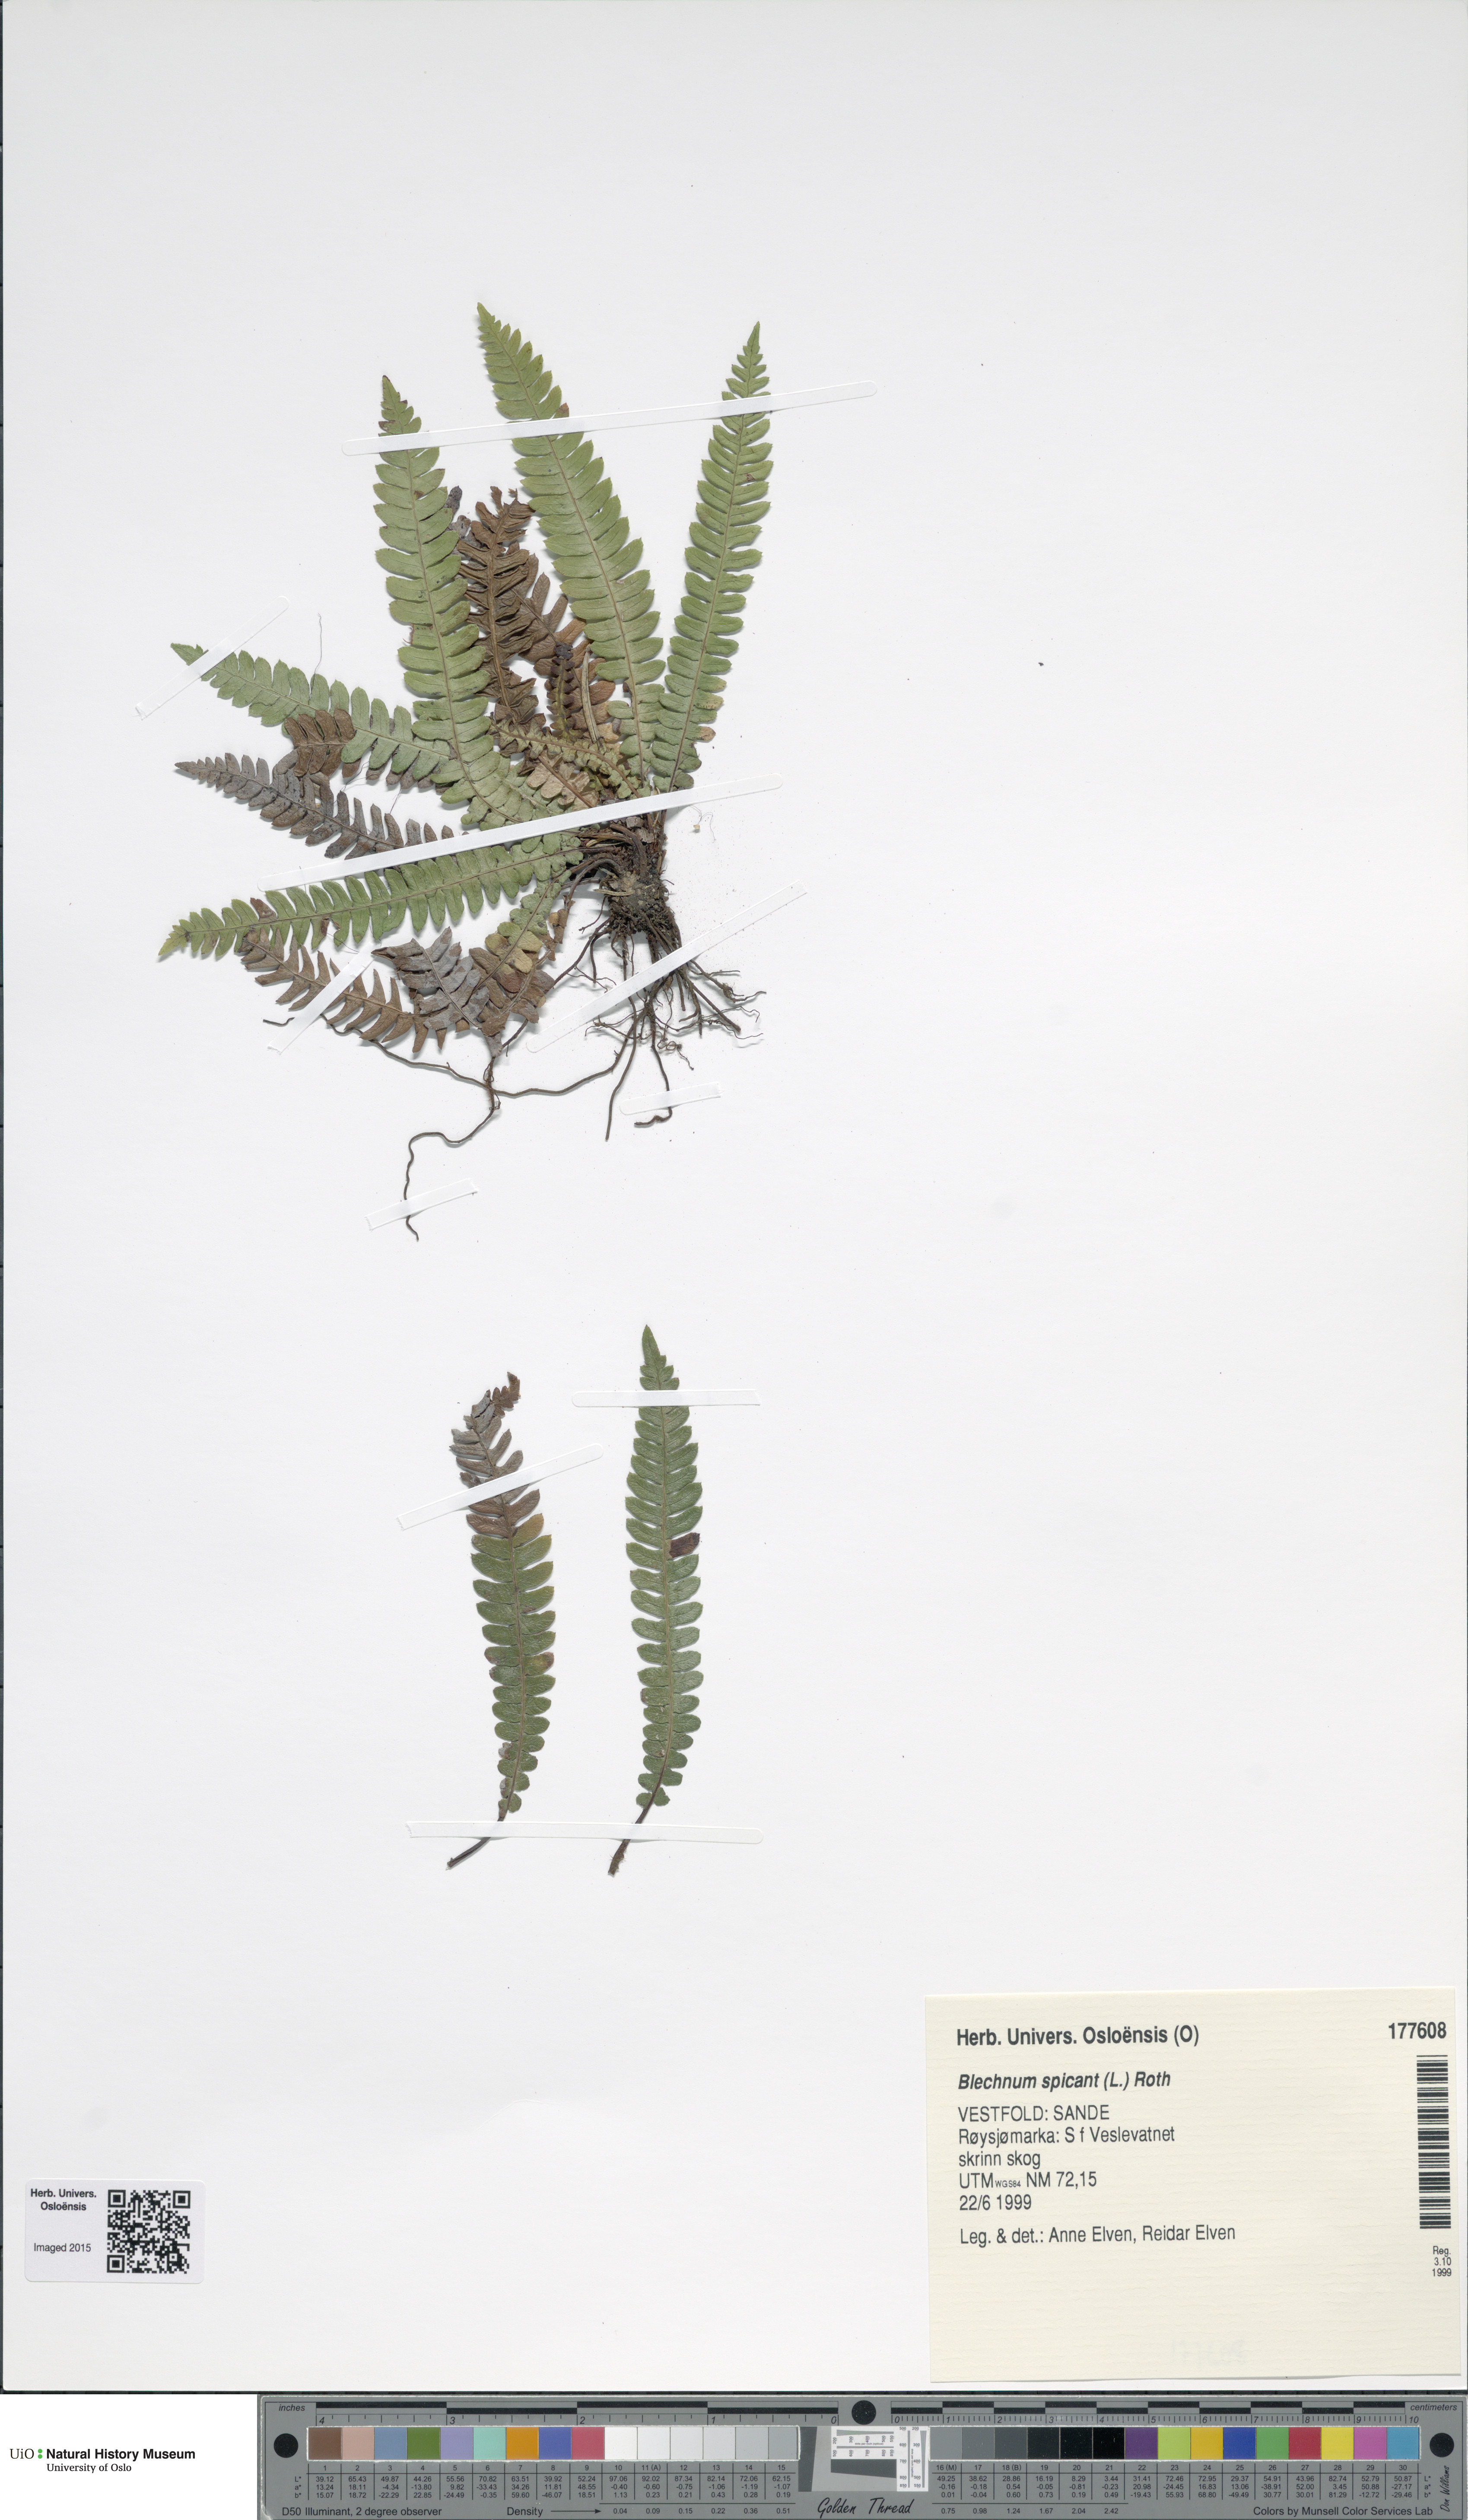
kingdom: Plantae
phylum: Tracheophyta
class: Polypodiopsida
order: Polypodiales
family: Blechnaceae
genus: Struthiopteris
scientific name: Struthiopteris spicant
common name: Deer fern
